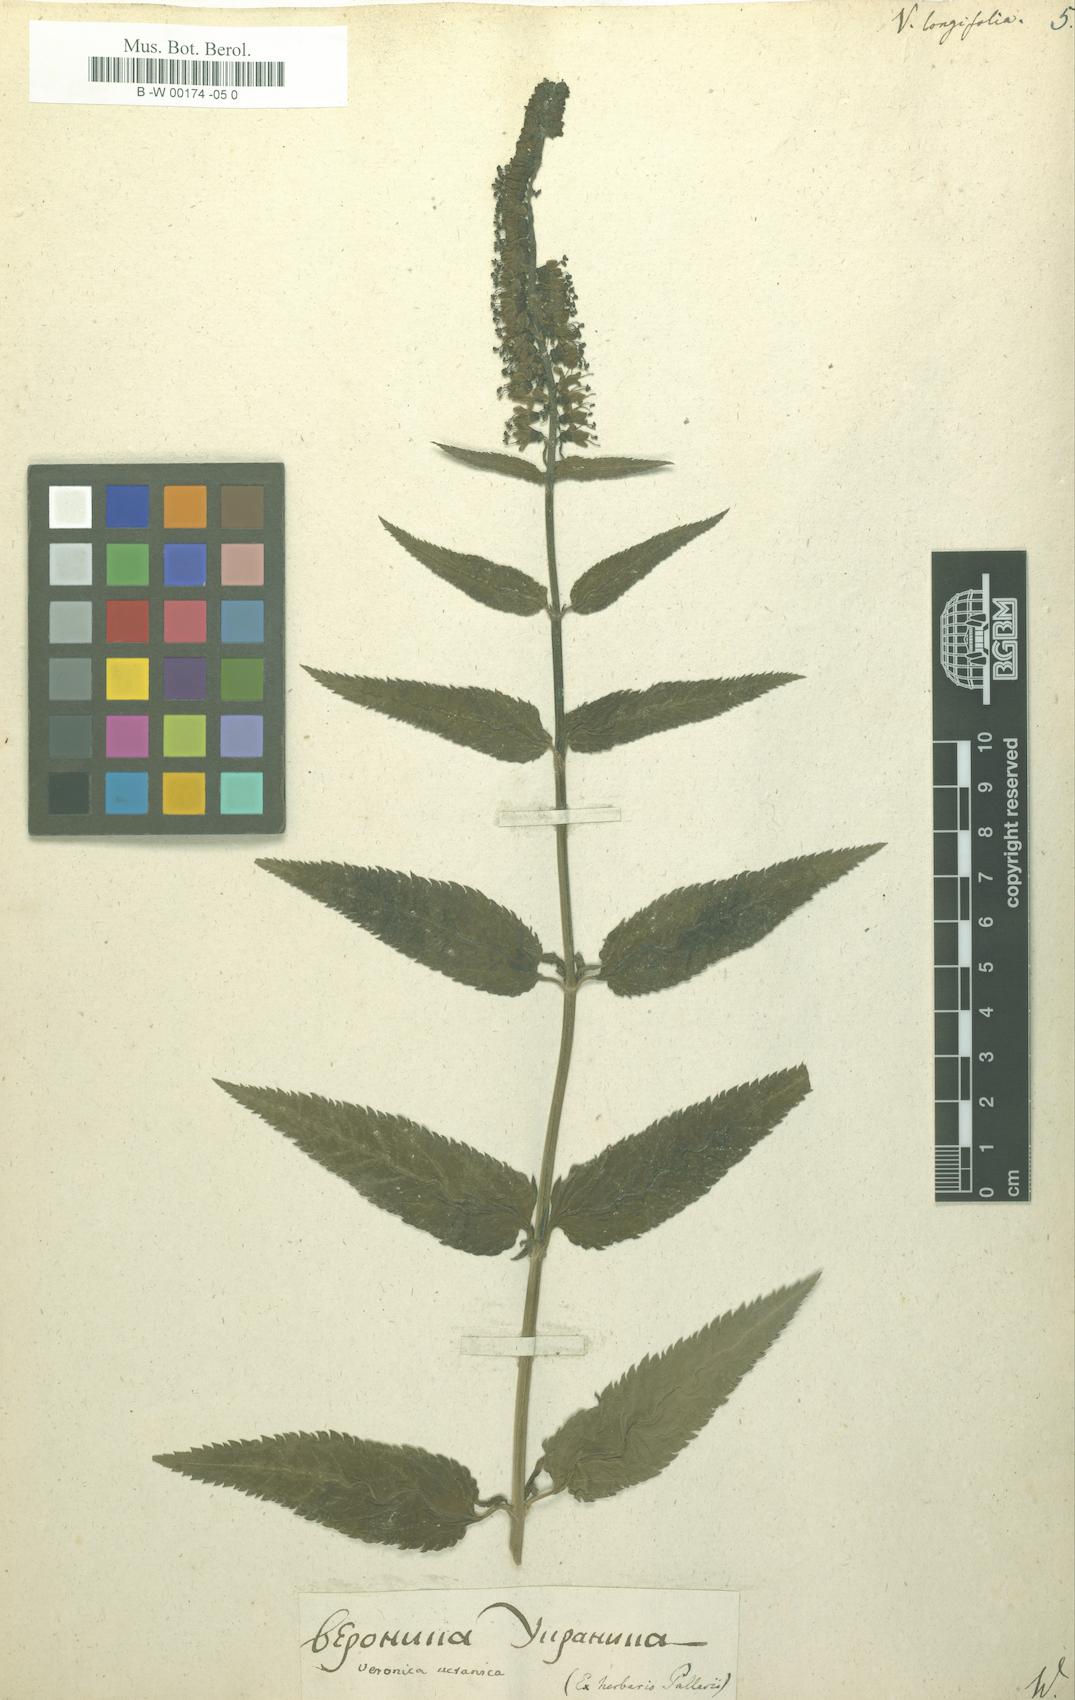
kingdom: Plantae
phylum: Tracheophyta
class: Magnoliopsida
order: Lamiales
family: Plantaginaceae
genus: Veronica
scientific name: Veronica longifolia
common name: Garden speedwell
